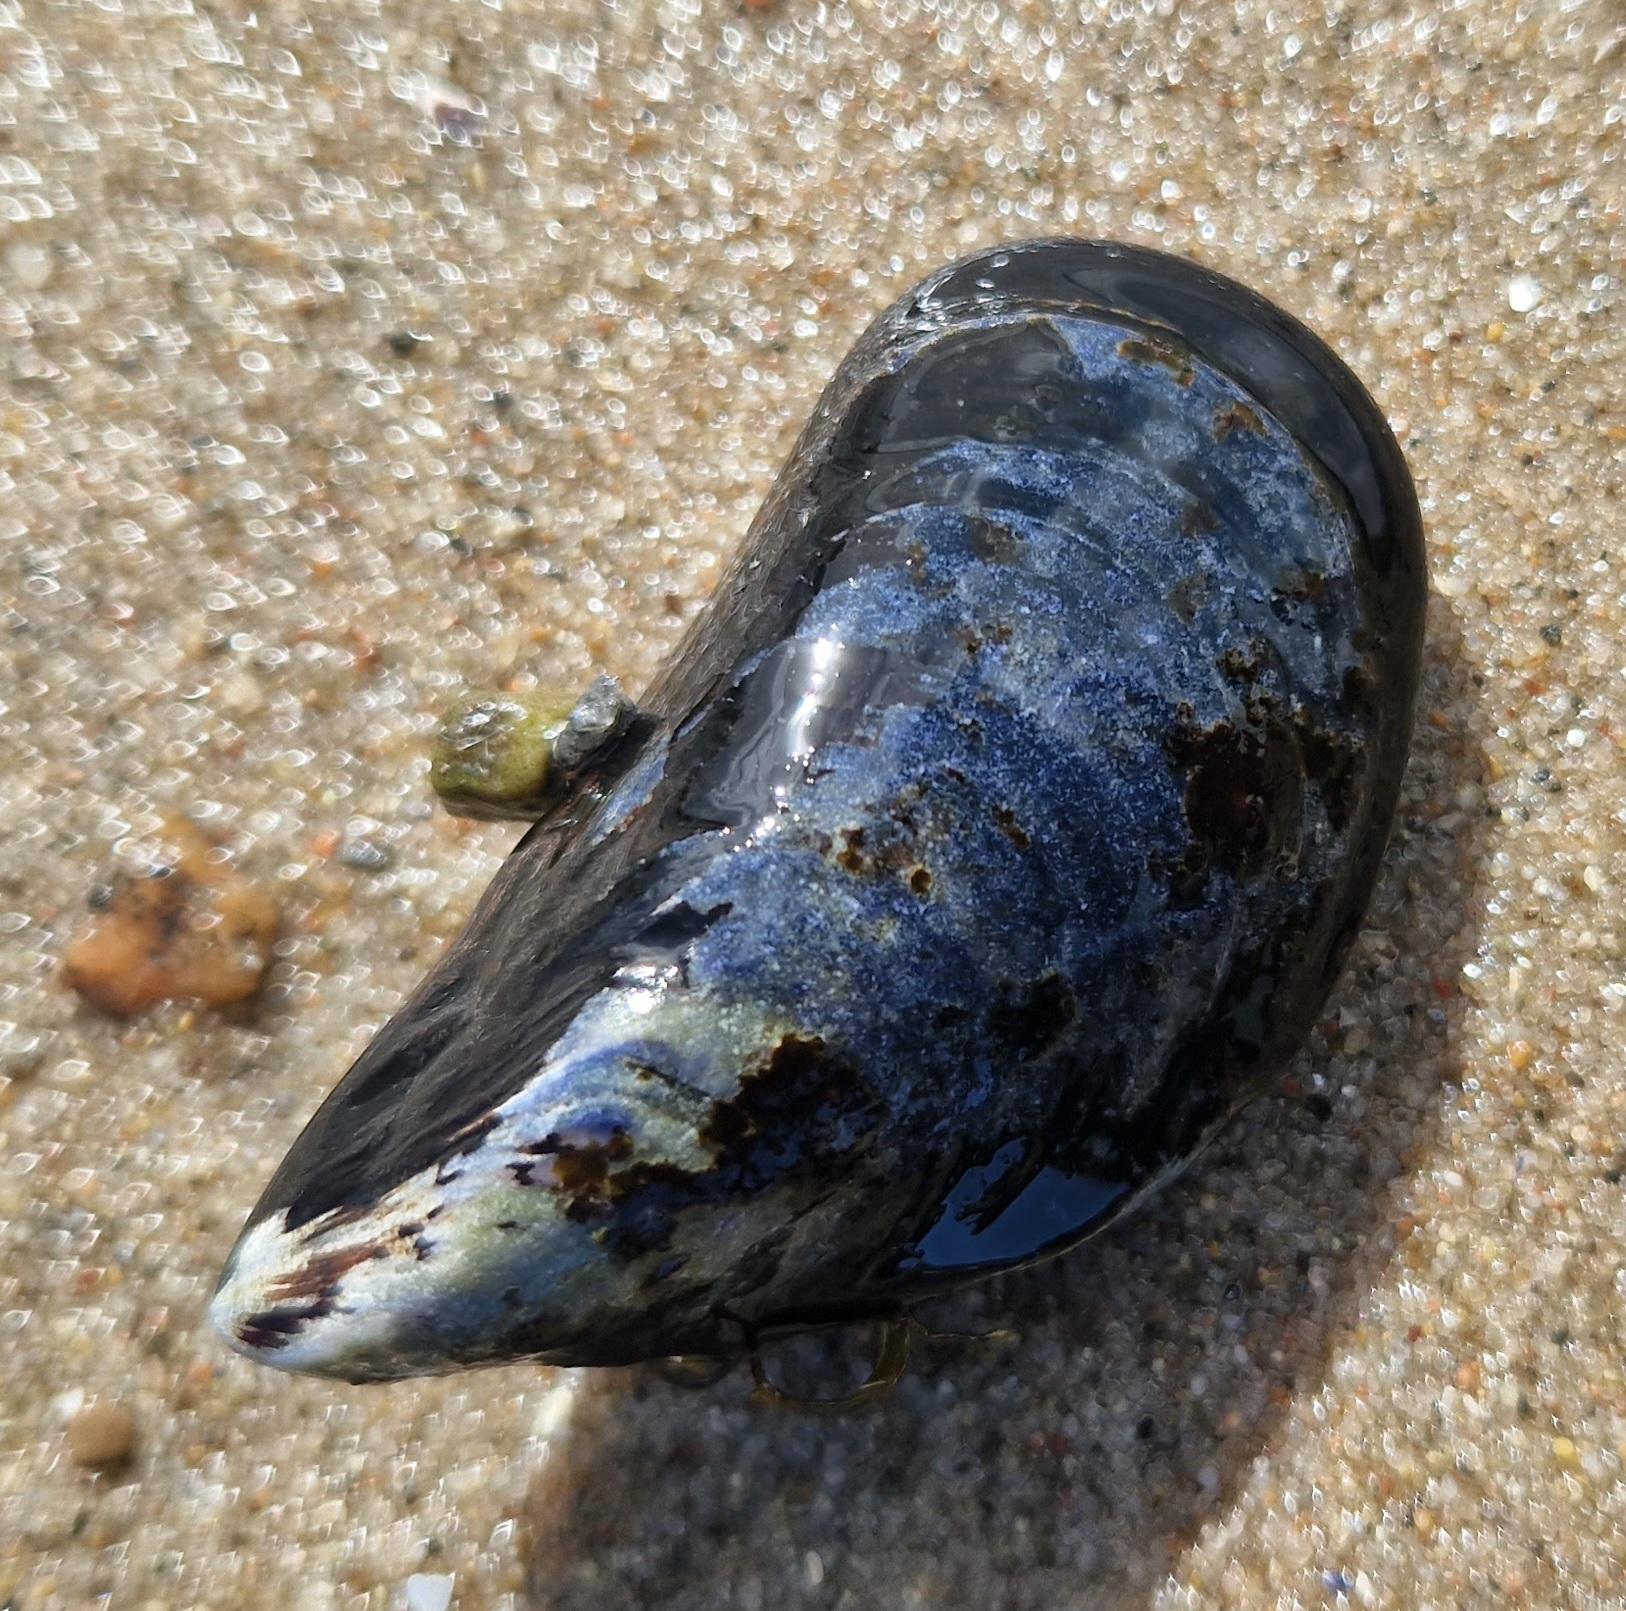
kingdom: Animalia
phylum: Mollusca
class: Bivalvia
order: Mytilida
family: Mytilidae
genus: Mytilus
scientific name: Mytilus edulis
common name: Blåmusling
